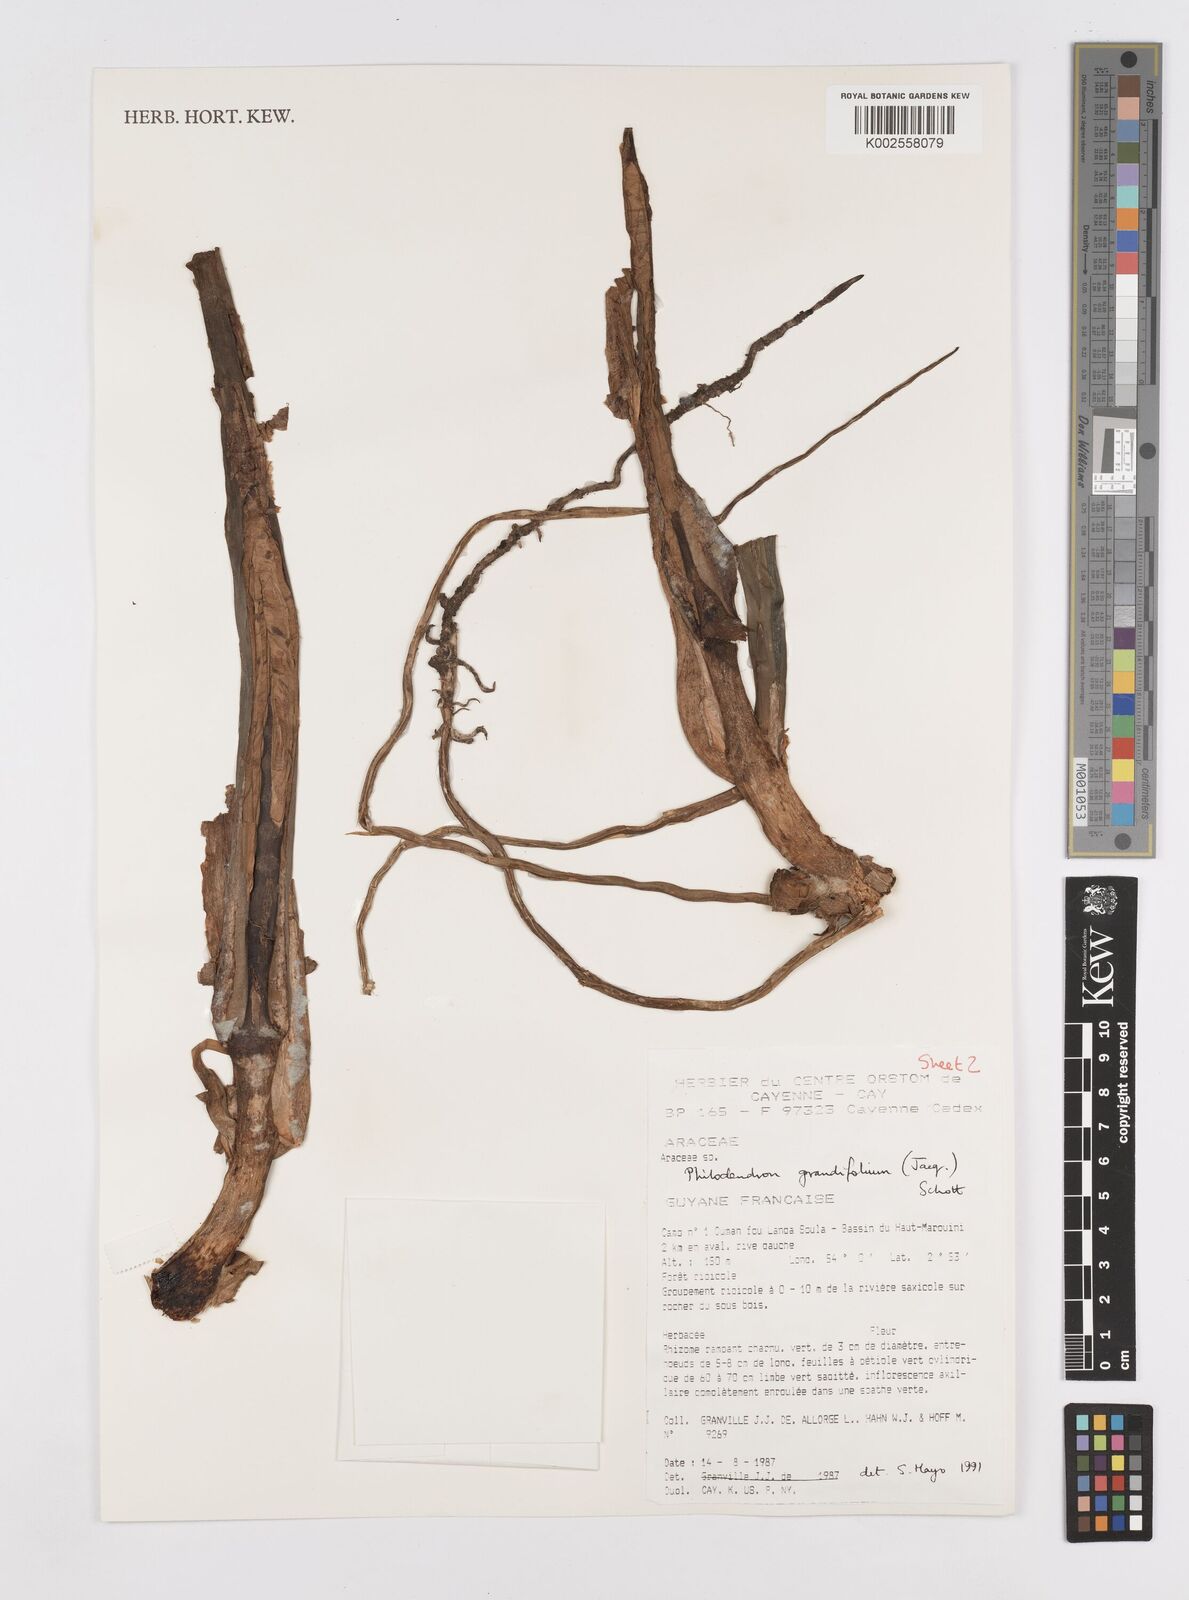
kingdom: Plantae
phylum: Tracheophyta
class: Liliopsida
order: Alismatales
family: Araceae
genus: Philodendron
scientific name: Philodendron grandifolium
